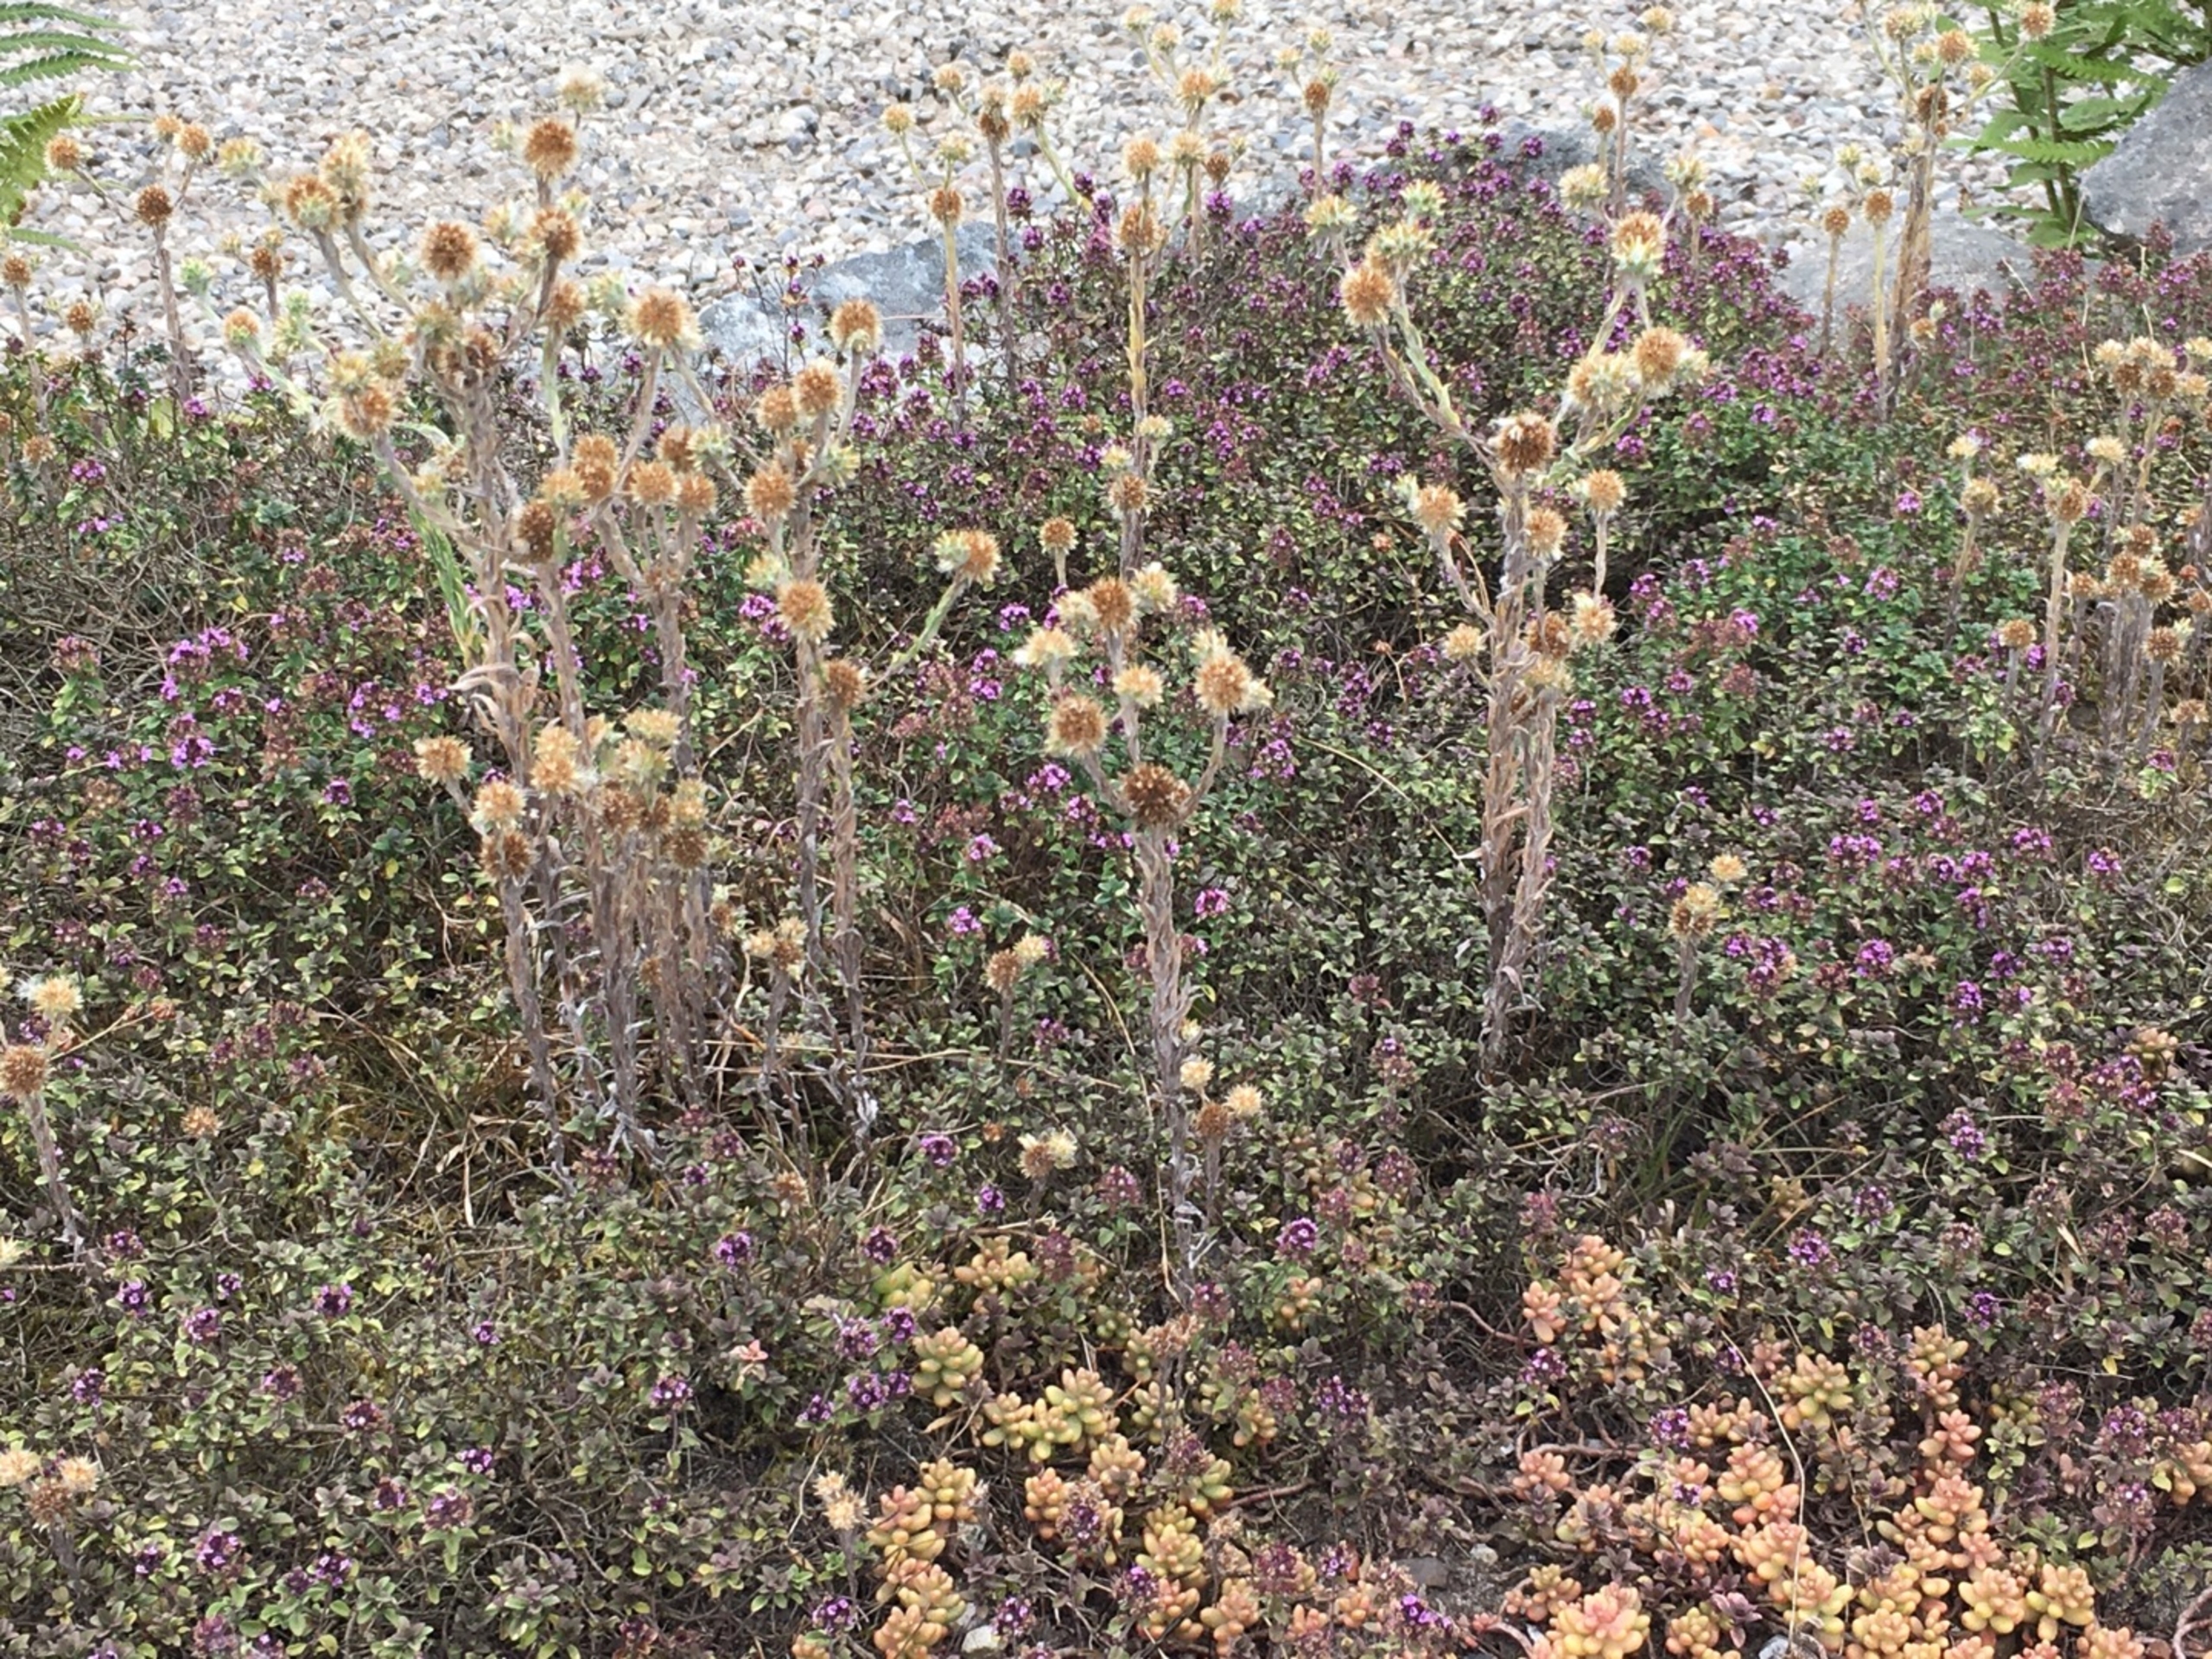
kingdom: Plantae
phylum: Tracheophyta
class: Magnoliopsida
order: Asterales
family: Asteraceae
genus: Filago
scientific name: Filago germanica
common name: Kugle-museurt
